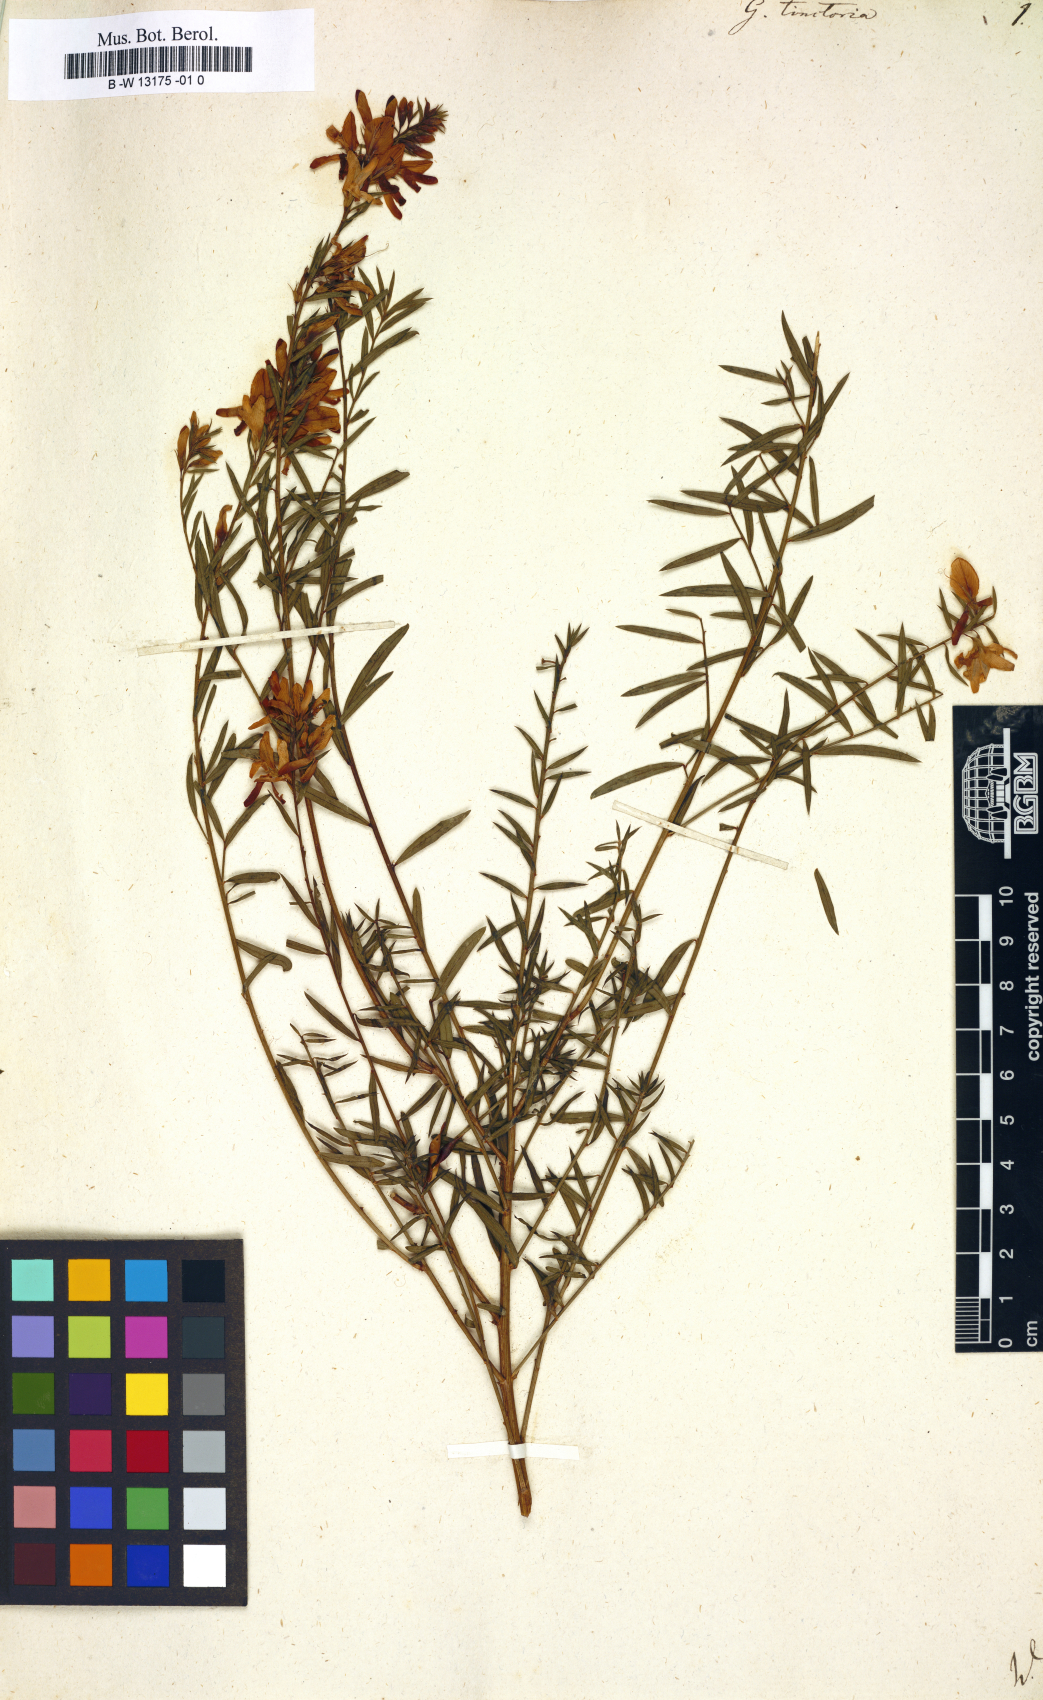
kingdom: Plantae
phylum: Tracheophyta
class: Magnoliopsida
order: Fabales
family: Fabaceae
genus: Genista
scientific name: Genista tinctoria
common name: Dyer's greenweed
